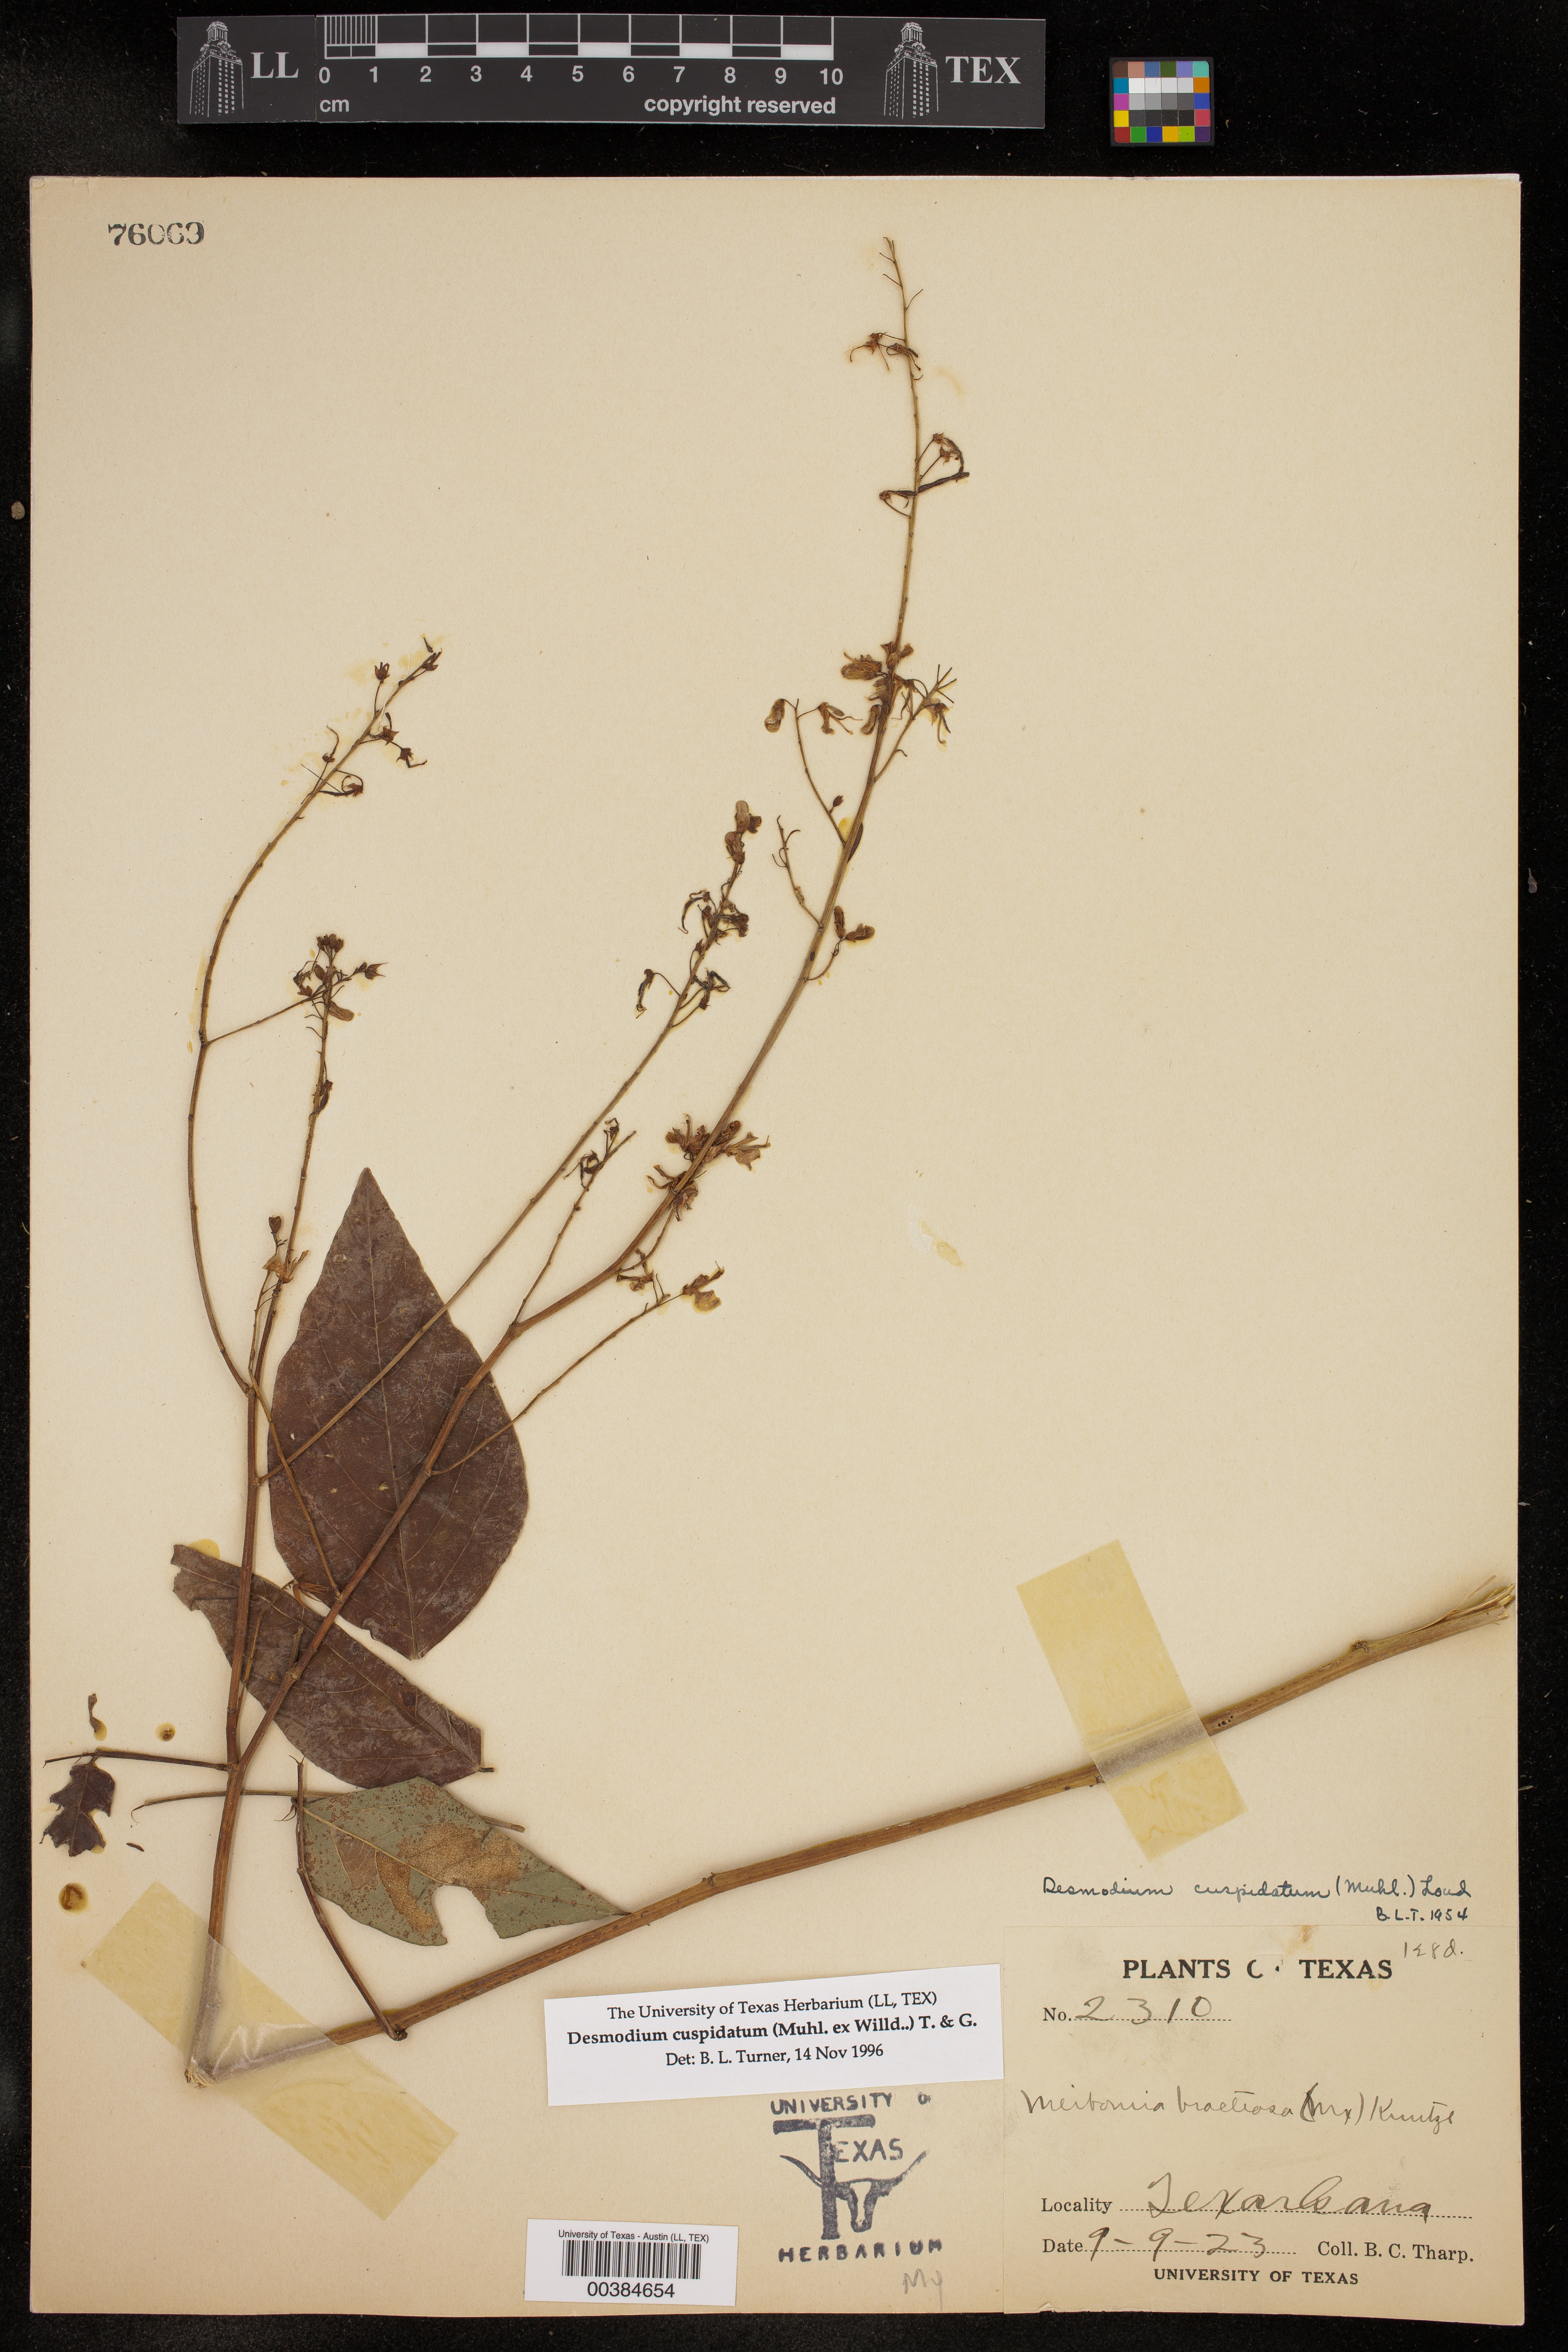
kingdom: Plantae
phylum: Tracheophyta
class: Magnoliopsida
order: Fabales
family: Fabaceae
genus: Desmodium
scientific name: Desmodium cuspidatum
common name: Big tick trefoil
